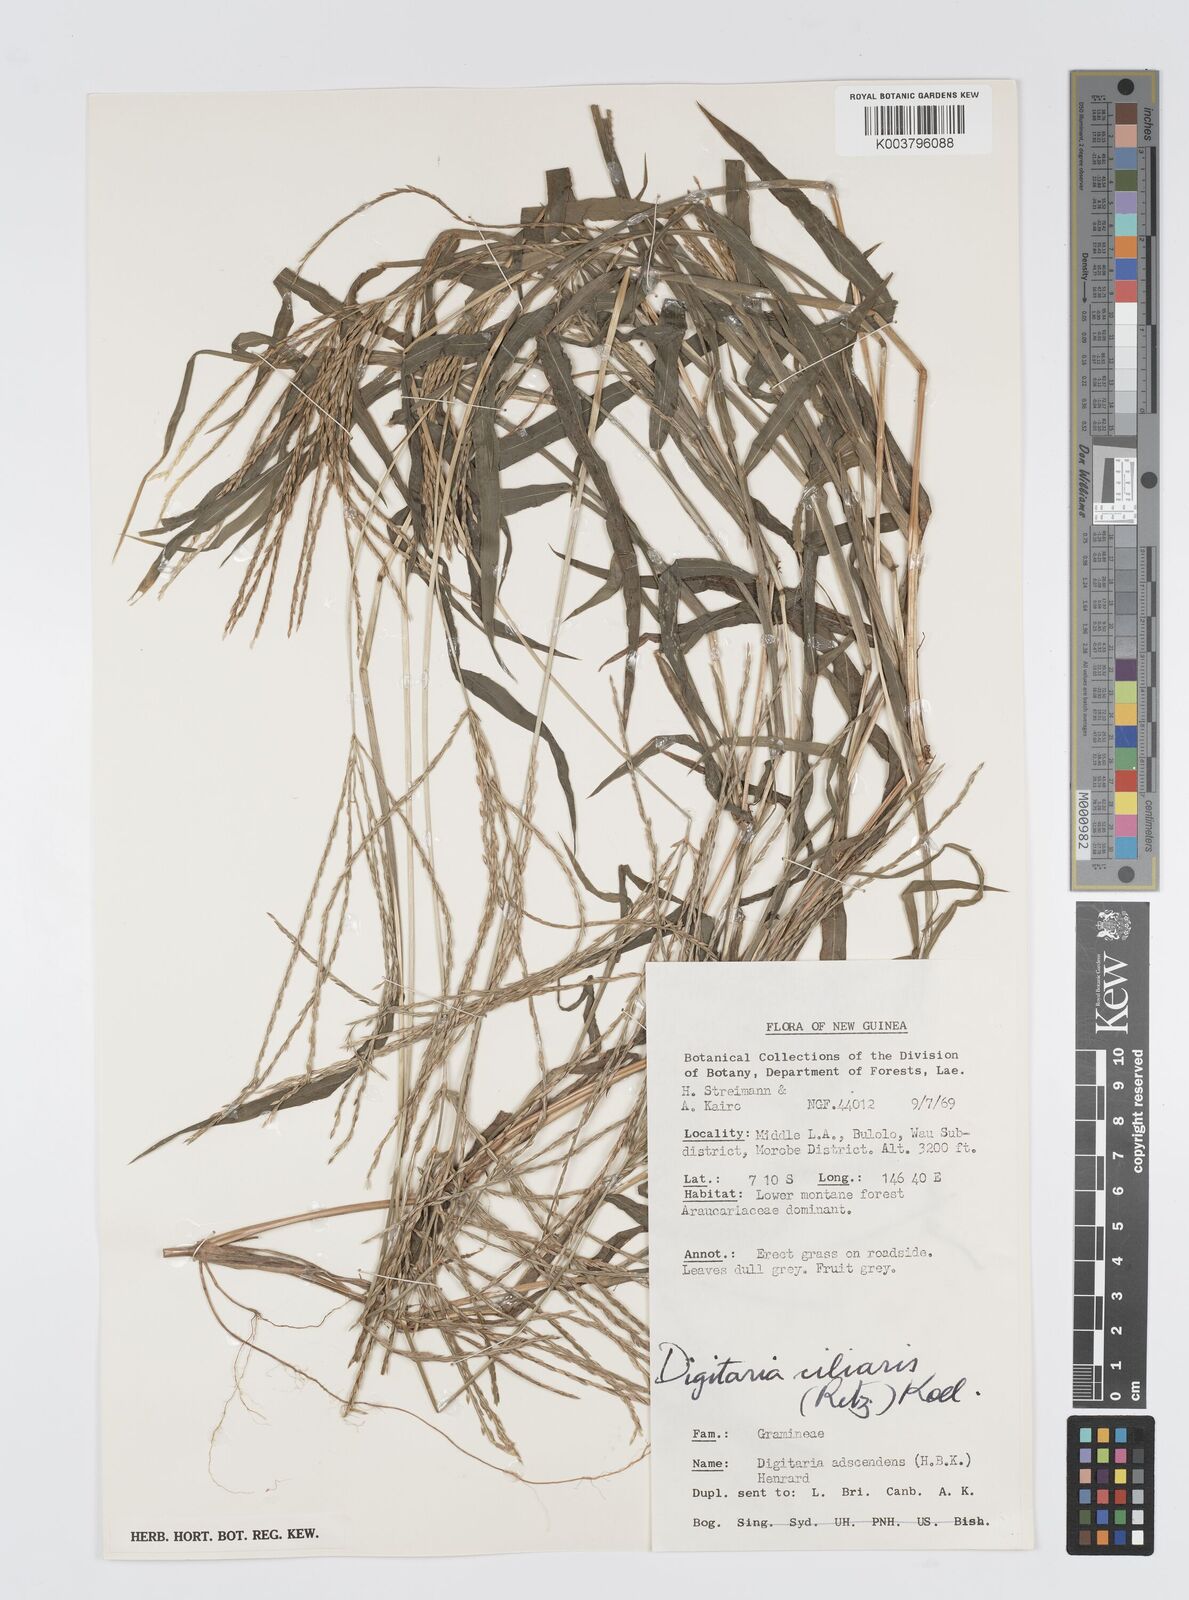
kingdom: Plantae
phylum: Tracheophyta
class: Liliopsida
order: Poales
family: Poaceae
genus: Digitaria
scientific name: Digitaria ciliaris
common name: Tropical finger-grass
